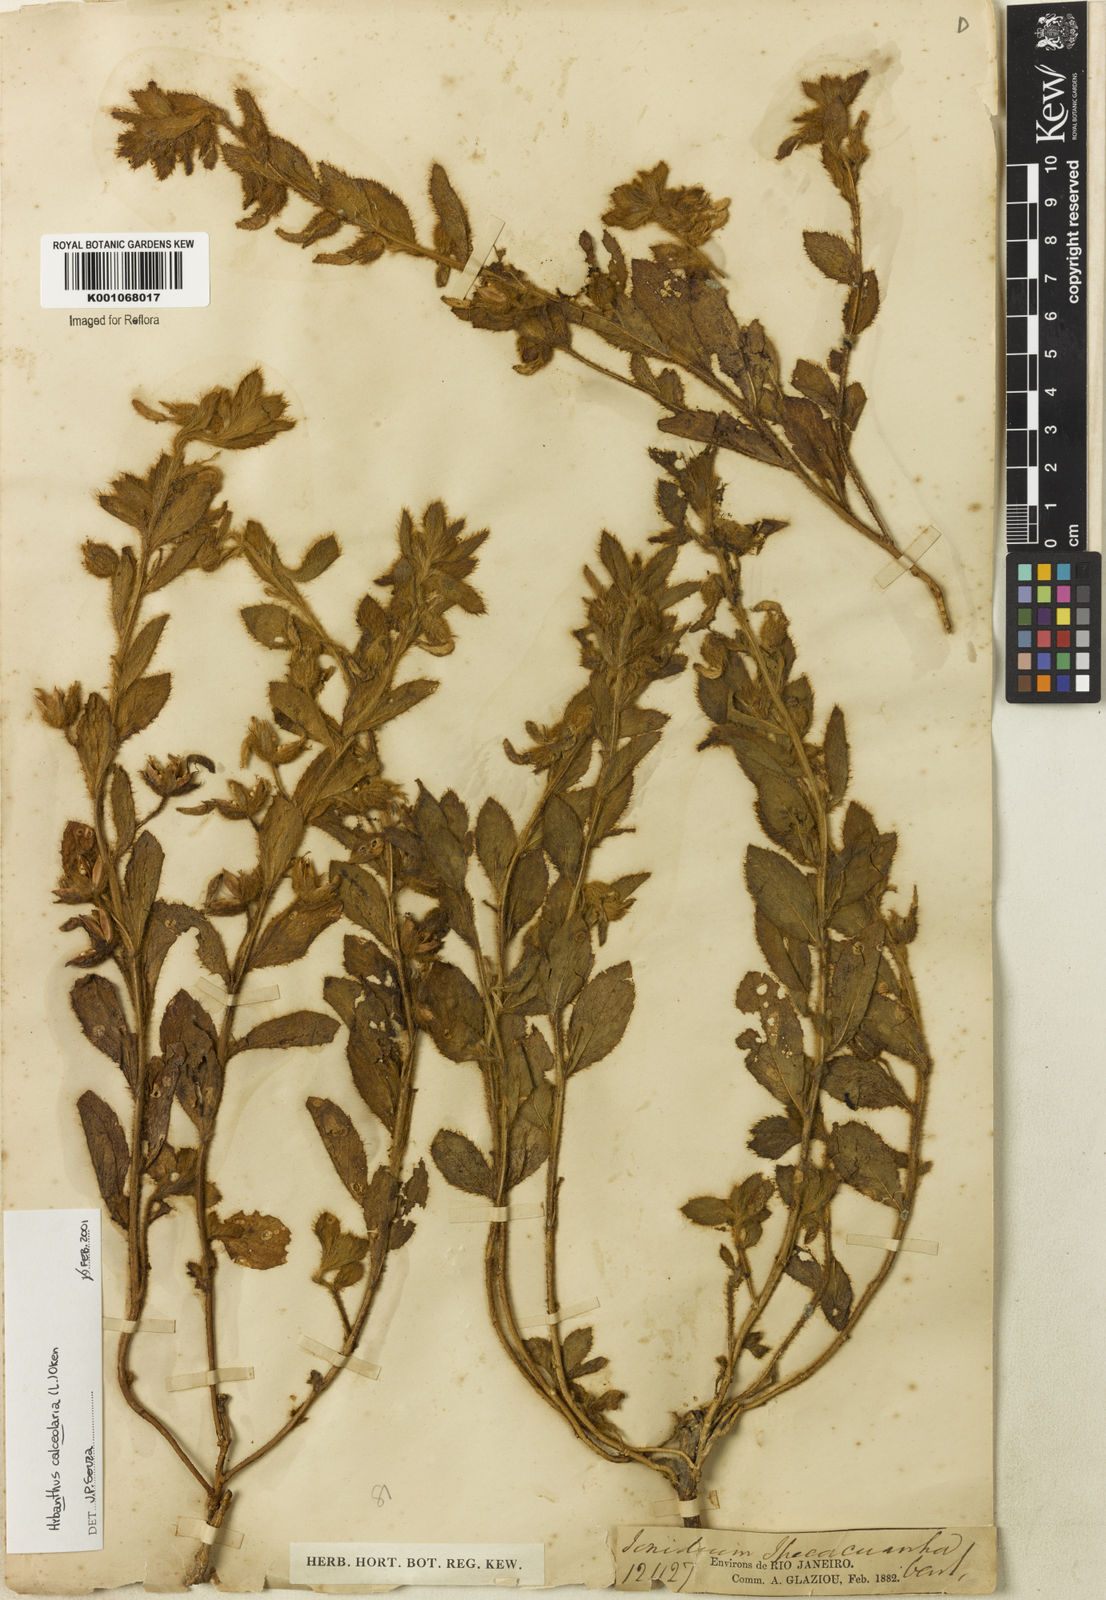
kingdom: Plantae
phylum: Tracheophyta
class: Magnoliopsida
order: Malpighiales
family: Violaceae
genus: Hybanthus
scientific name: Hybanthus
